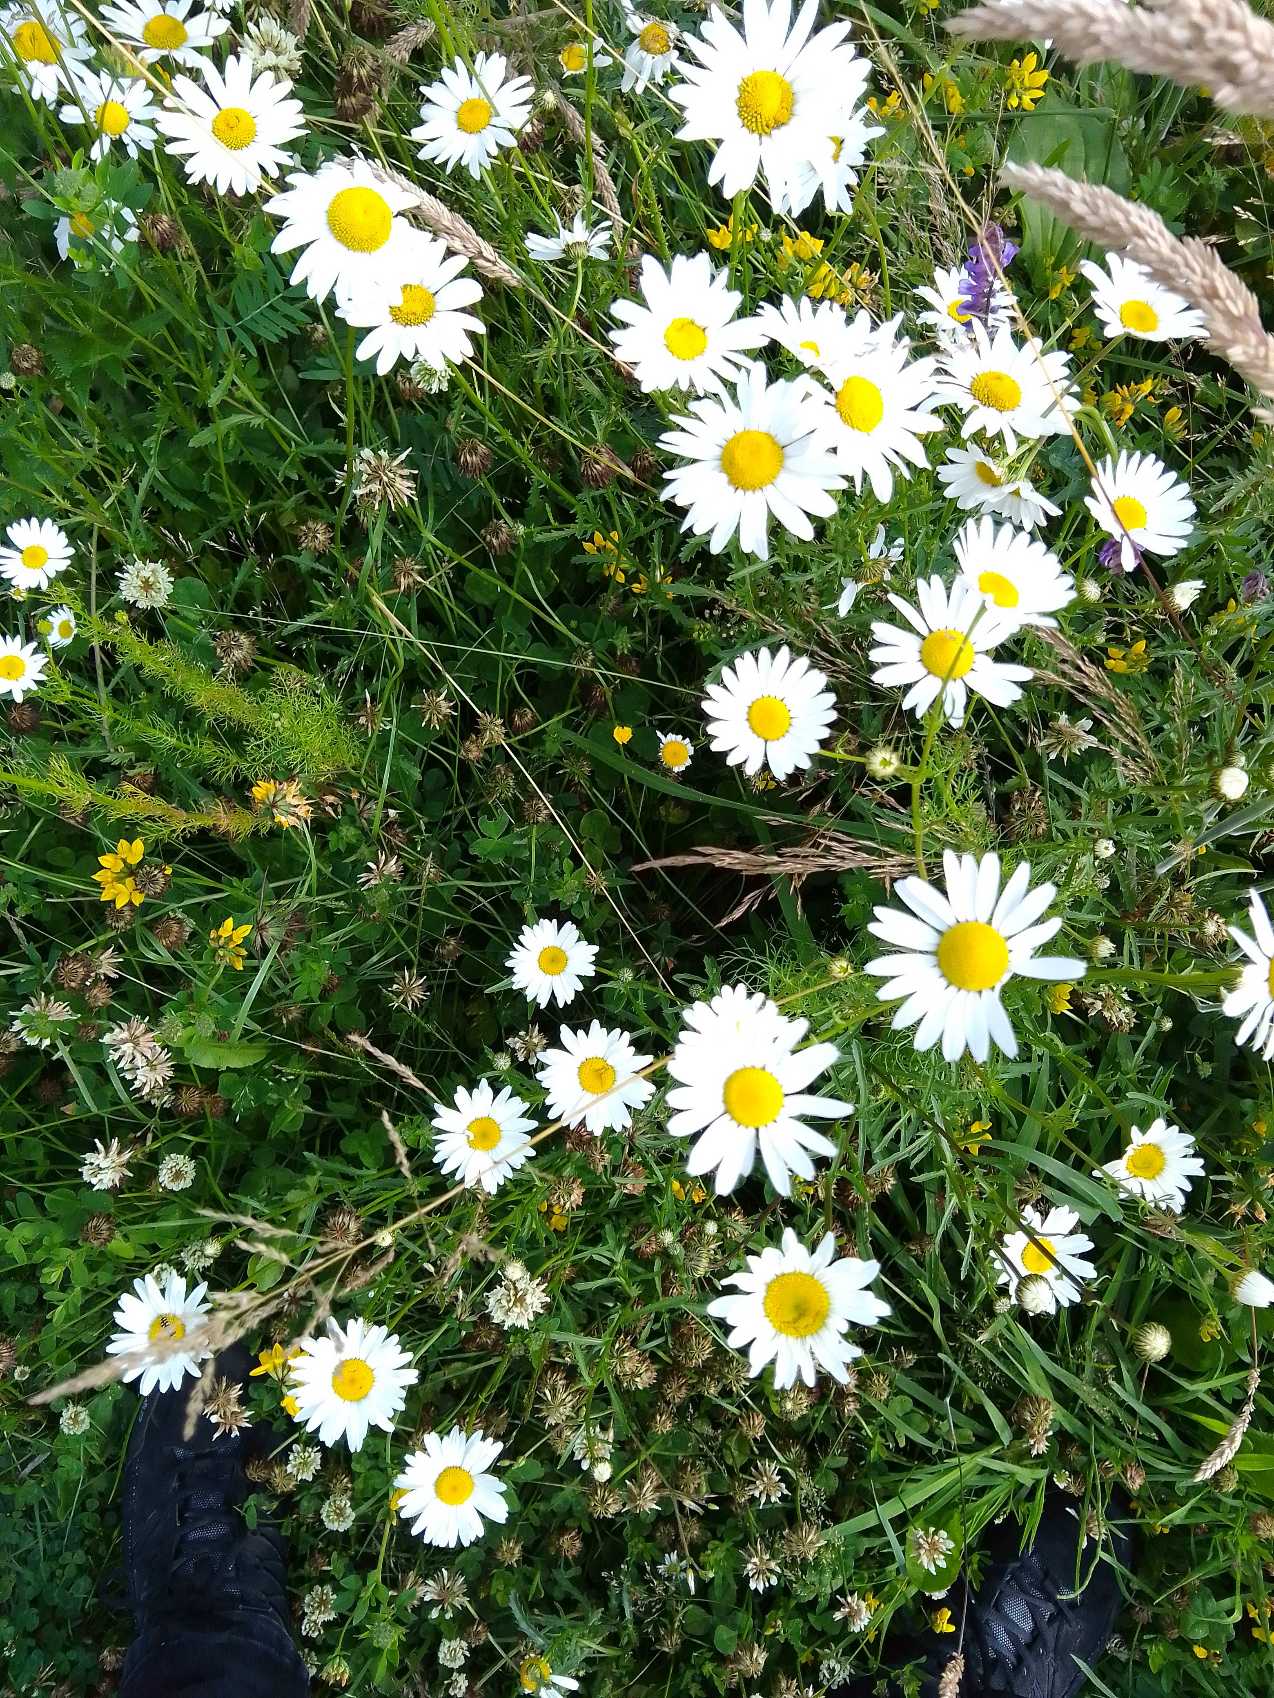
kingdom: Plantae
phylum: Tracheophyta
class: Magnoliopsida
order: Asterales
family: Asteraceae
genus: Leucanthemum
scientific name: Leucanthemum vulgare
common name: Hvid okseøje
